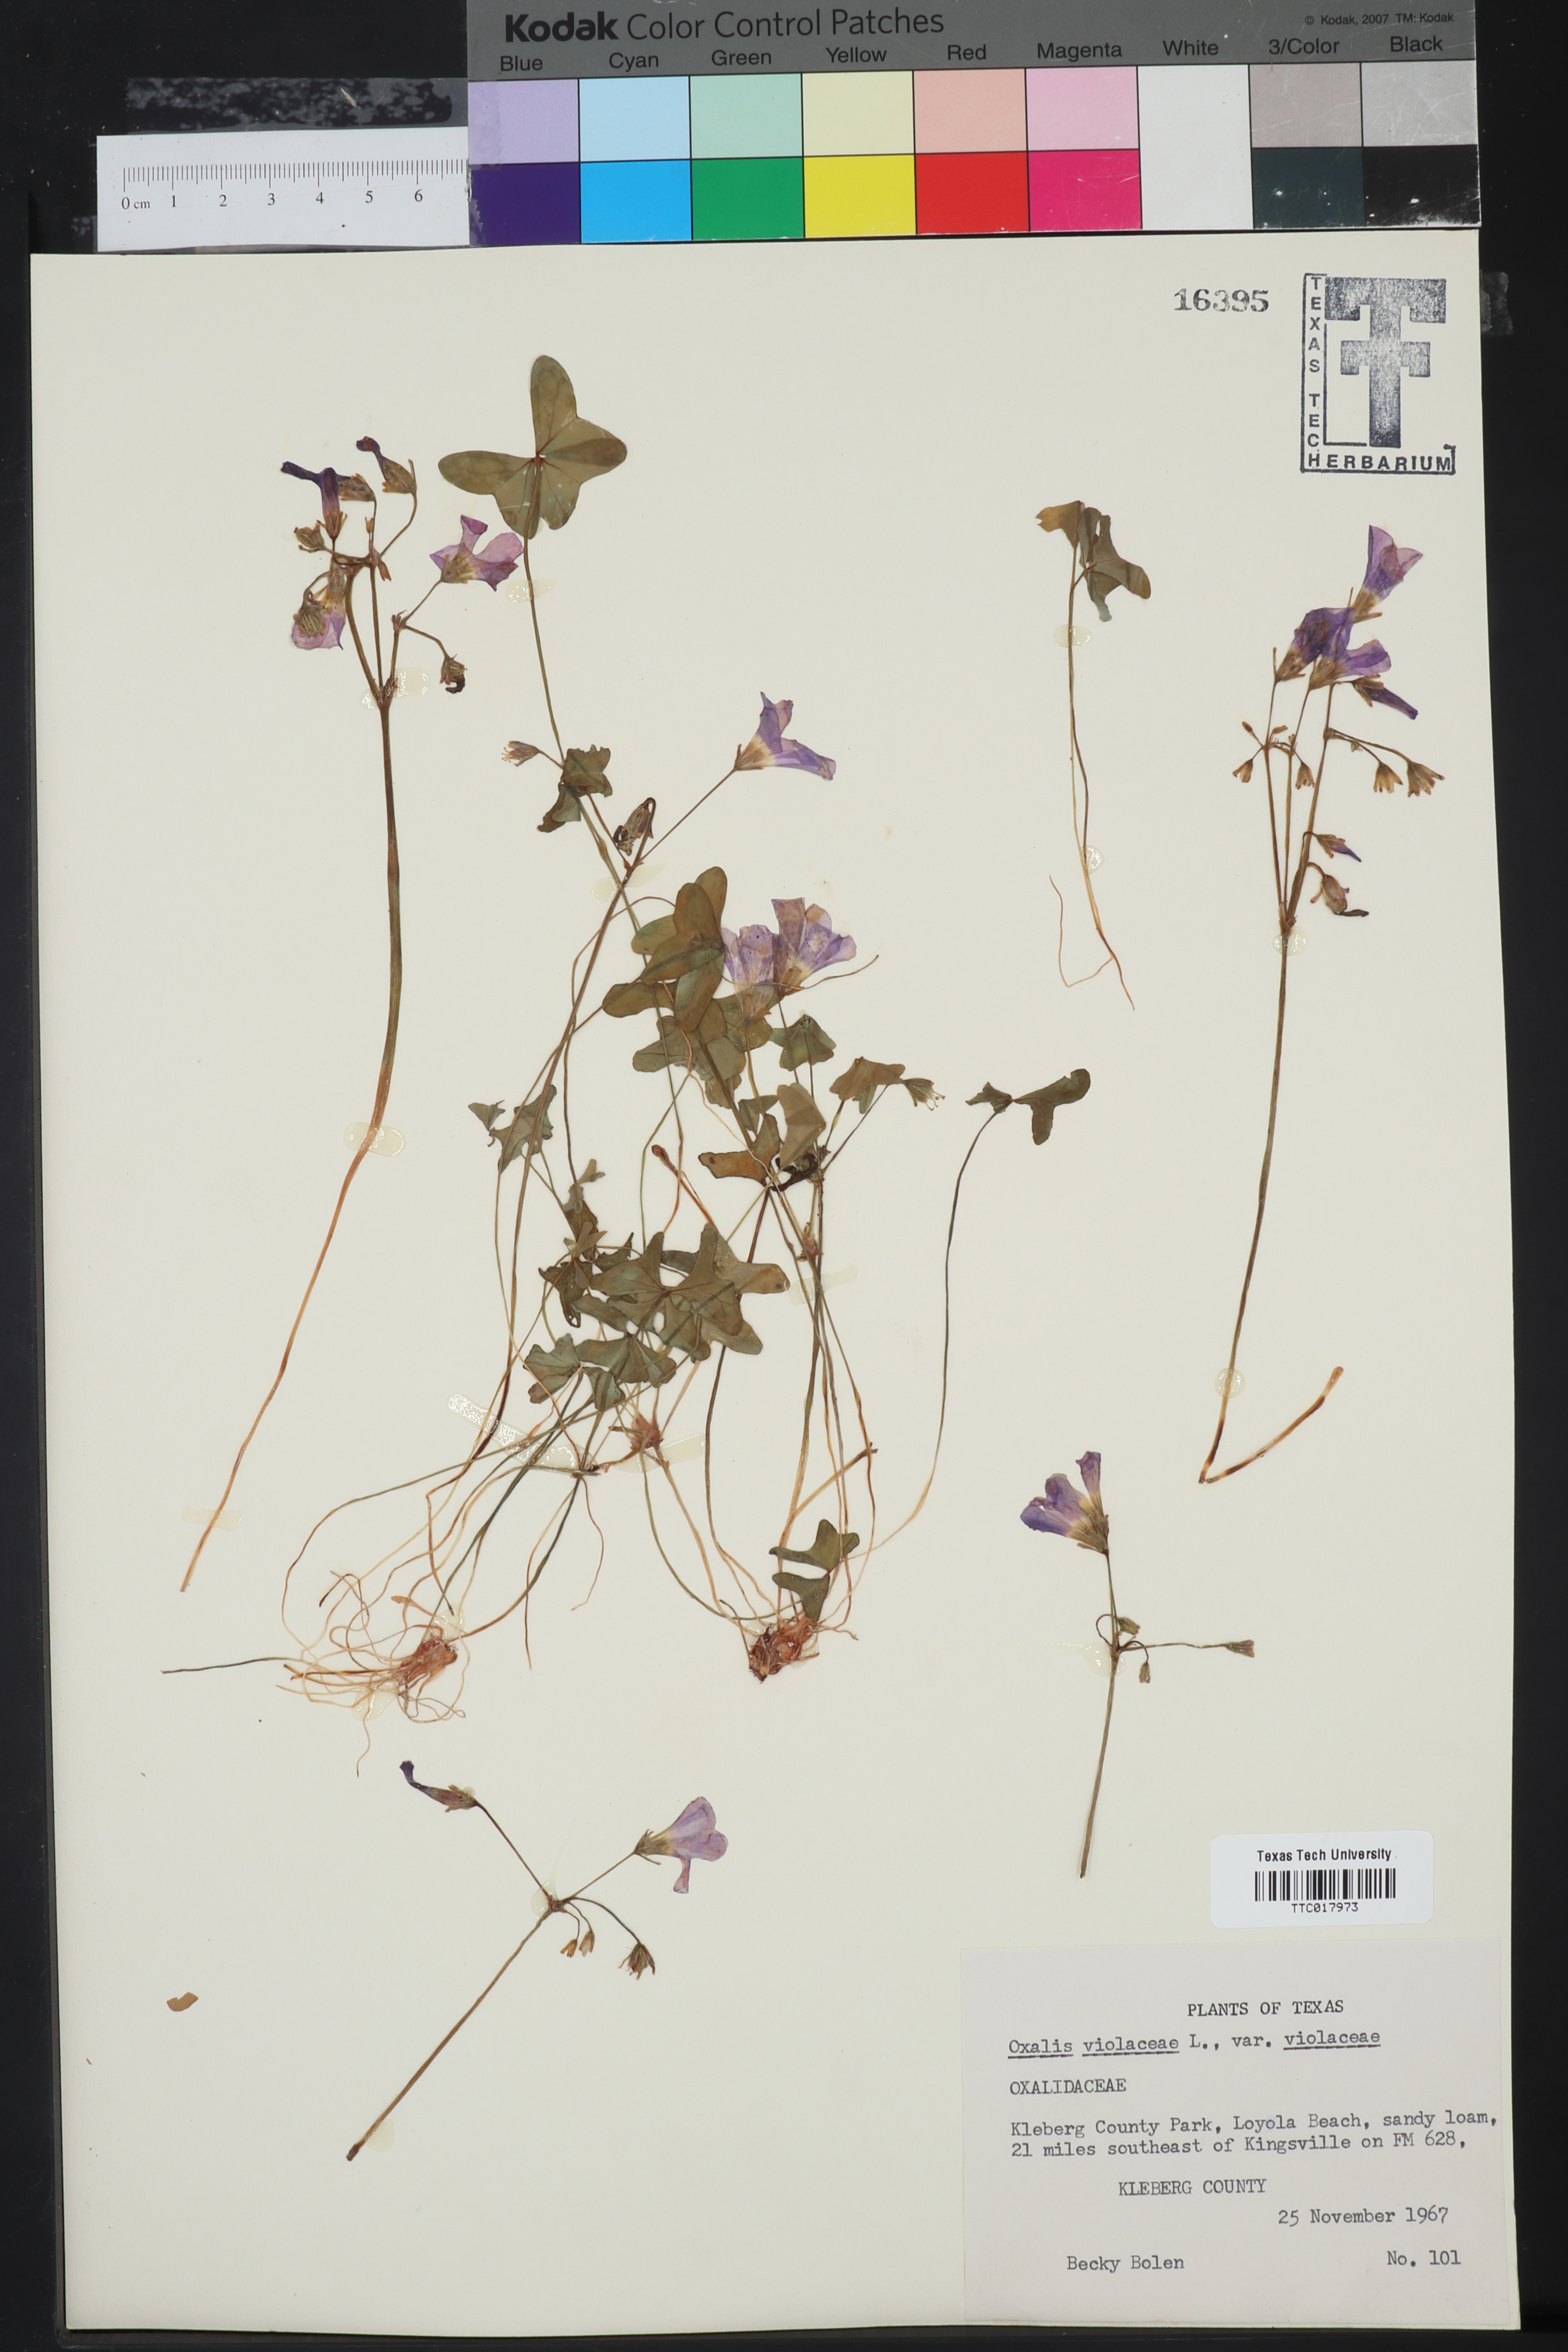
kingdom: Plantae
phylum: Tracheophyta
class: Magnoliopsida
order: Oxalidales
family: Oxalidaceae
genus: Oxalis
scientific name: Oxalis violacea
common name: Violet wood-sorrel
